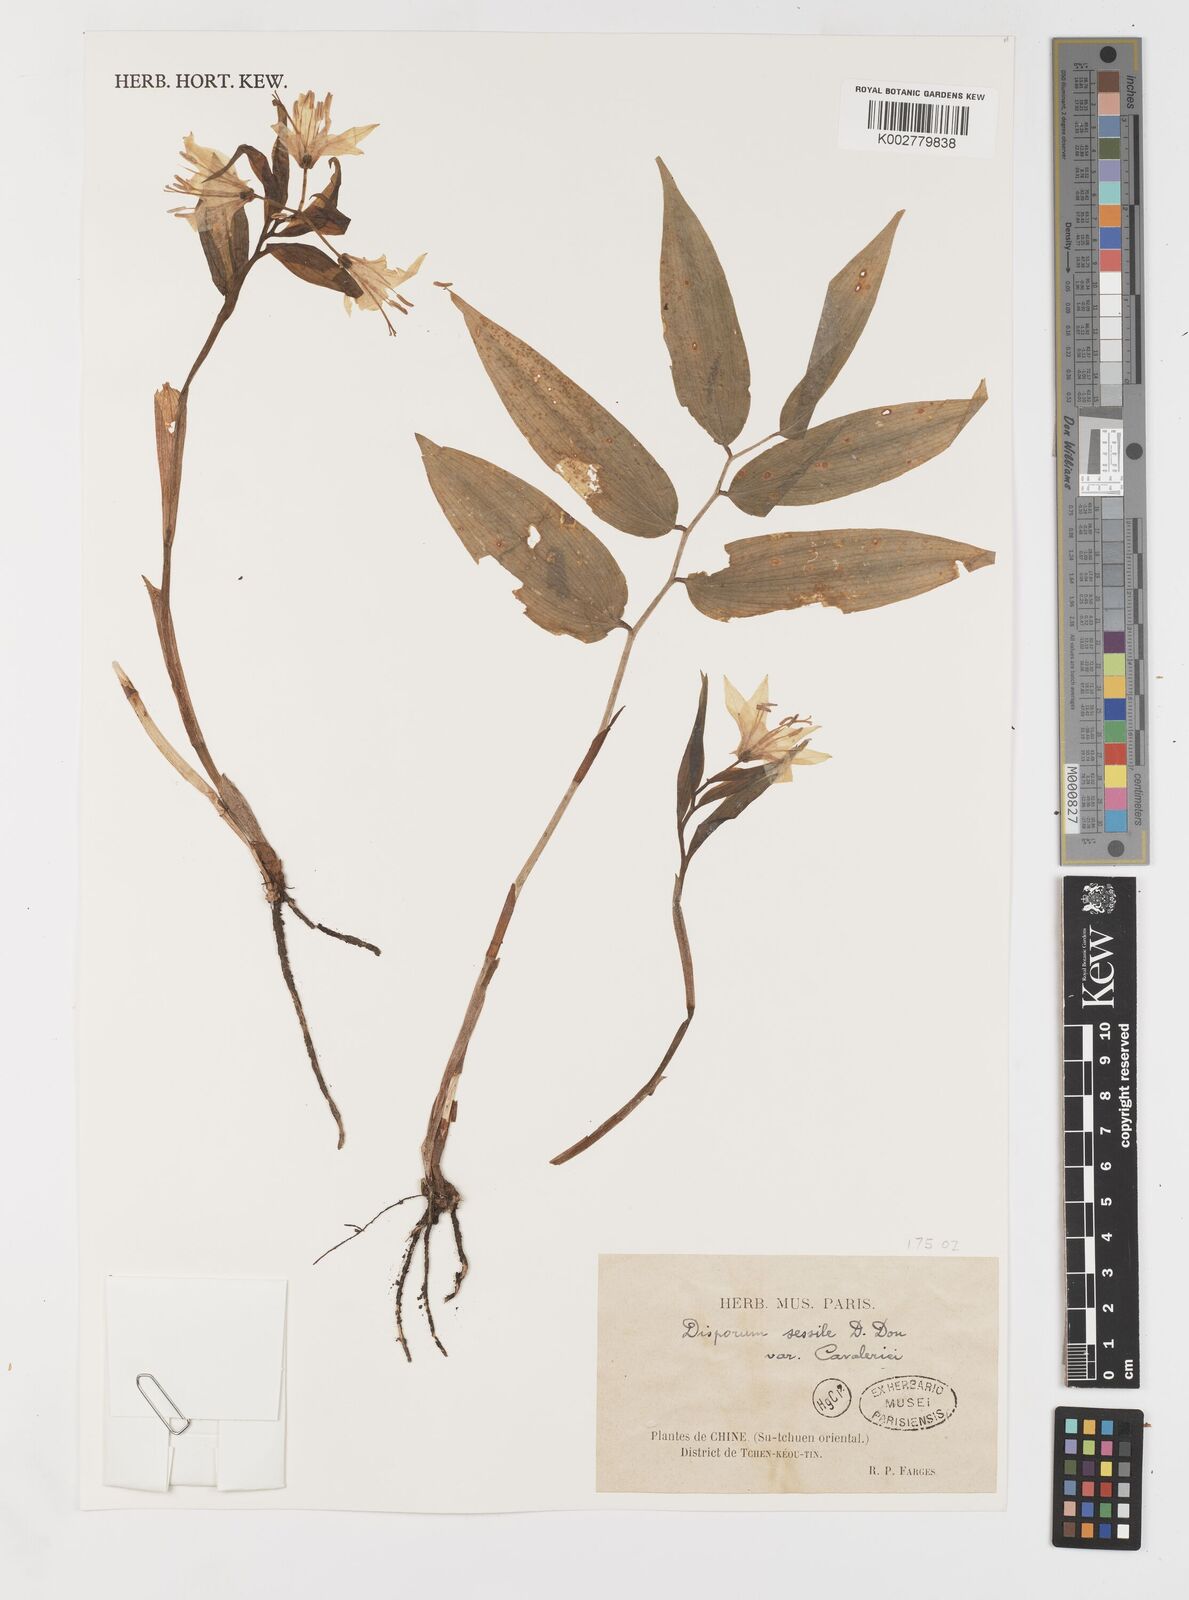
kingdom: Plantae
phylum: Tracheophyta
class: Liliopsida
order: Liliales
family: Colchicaceae
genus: Disporum
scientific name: Disporum sessile
